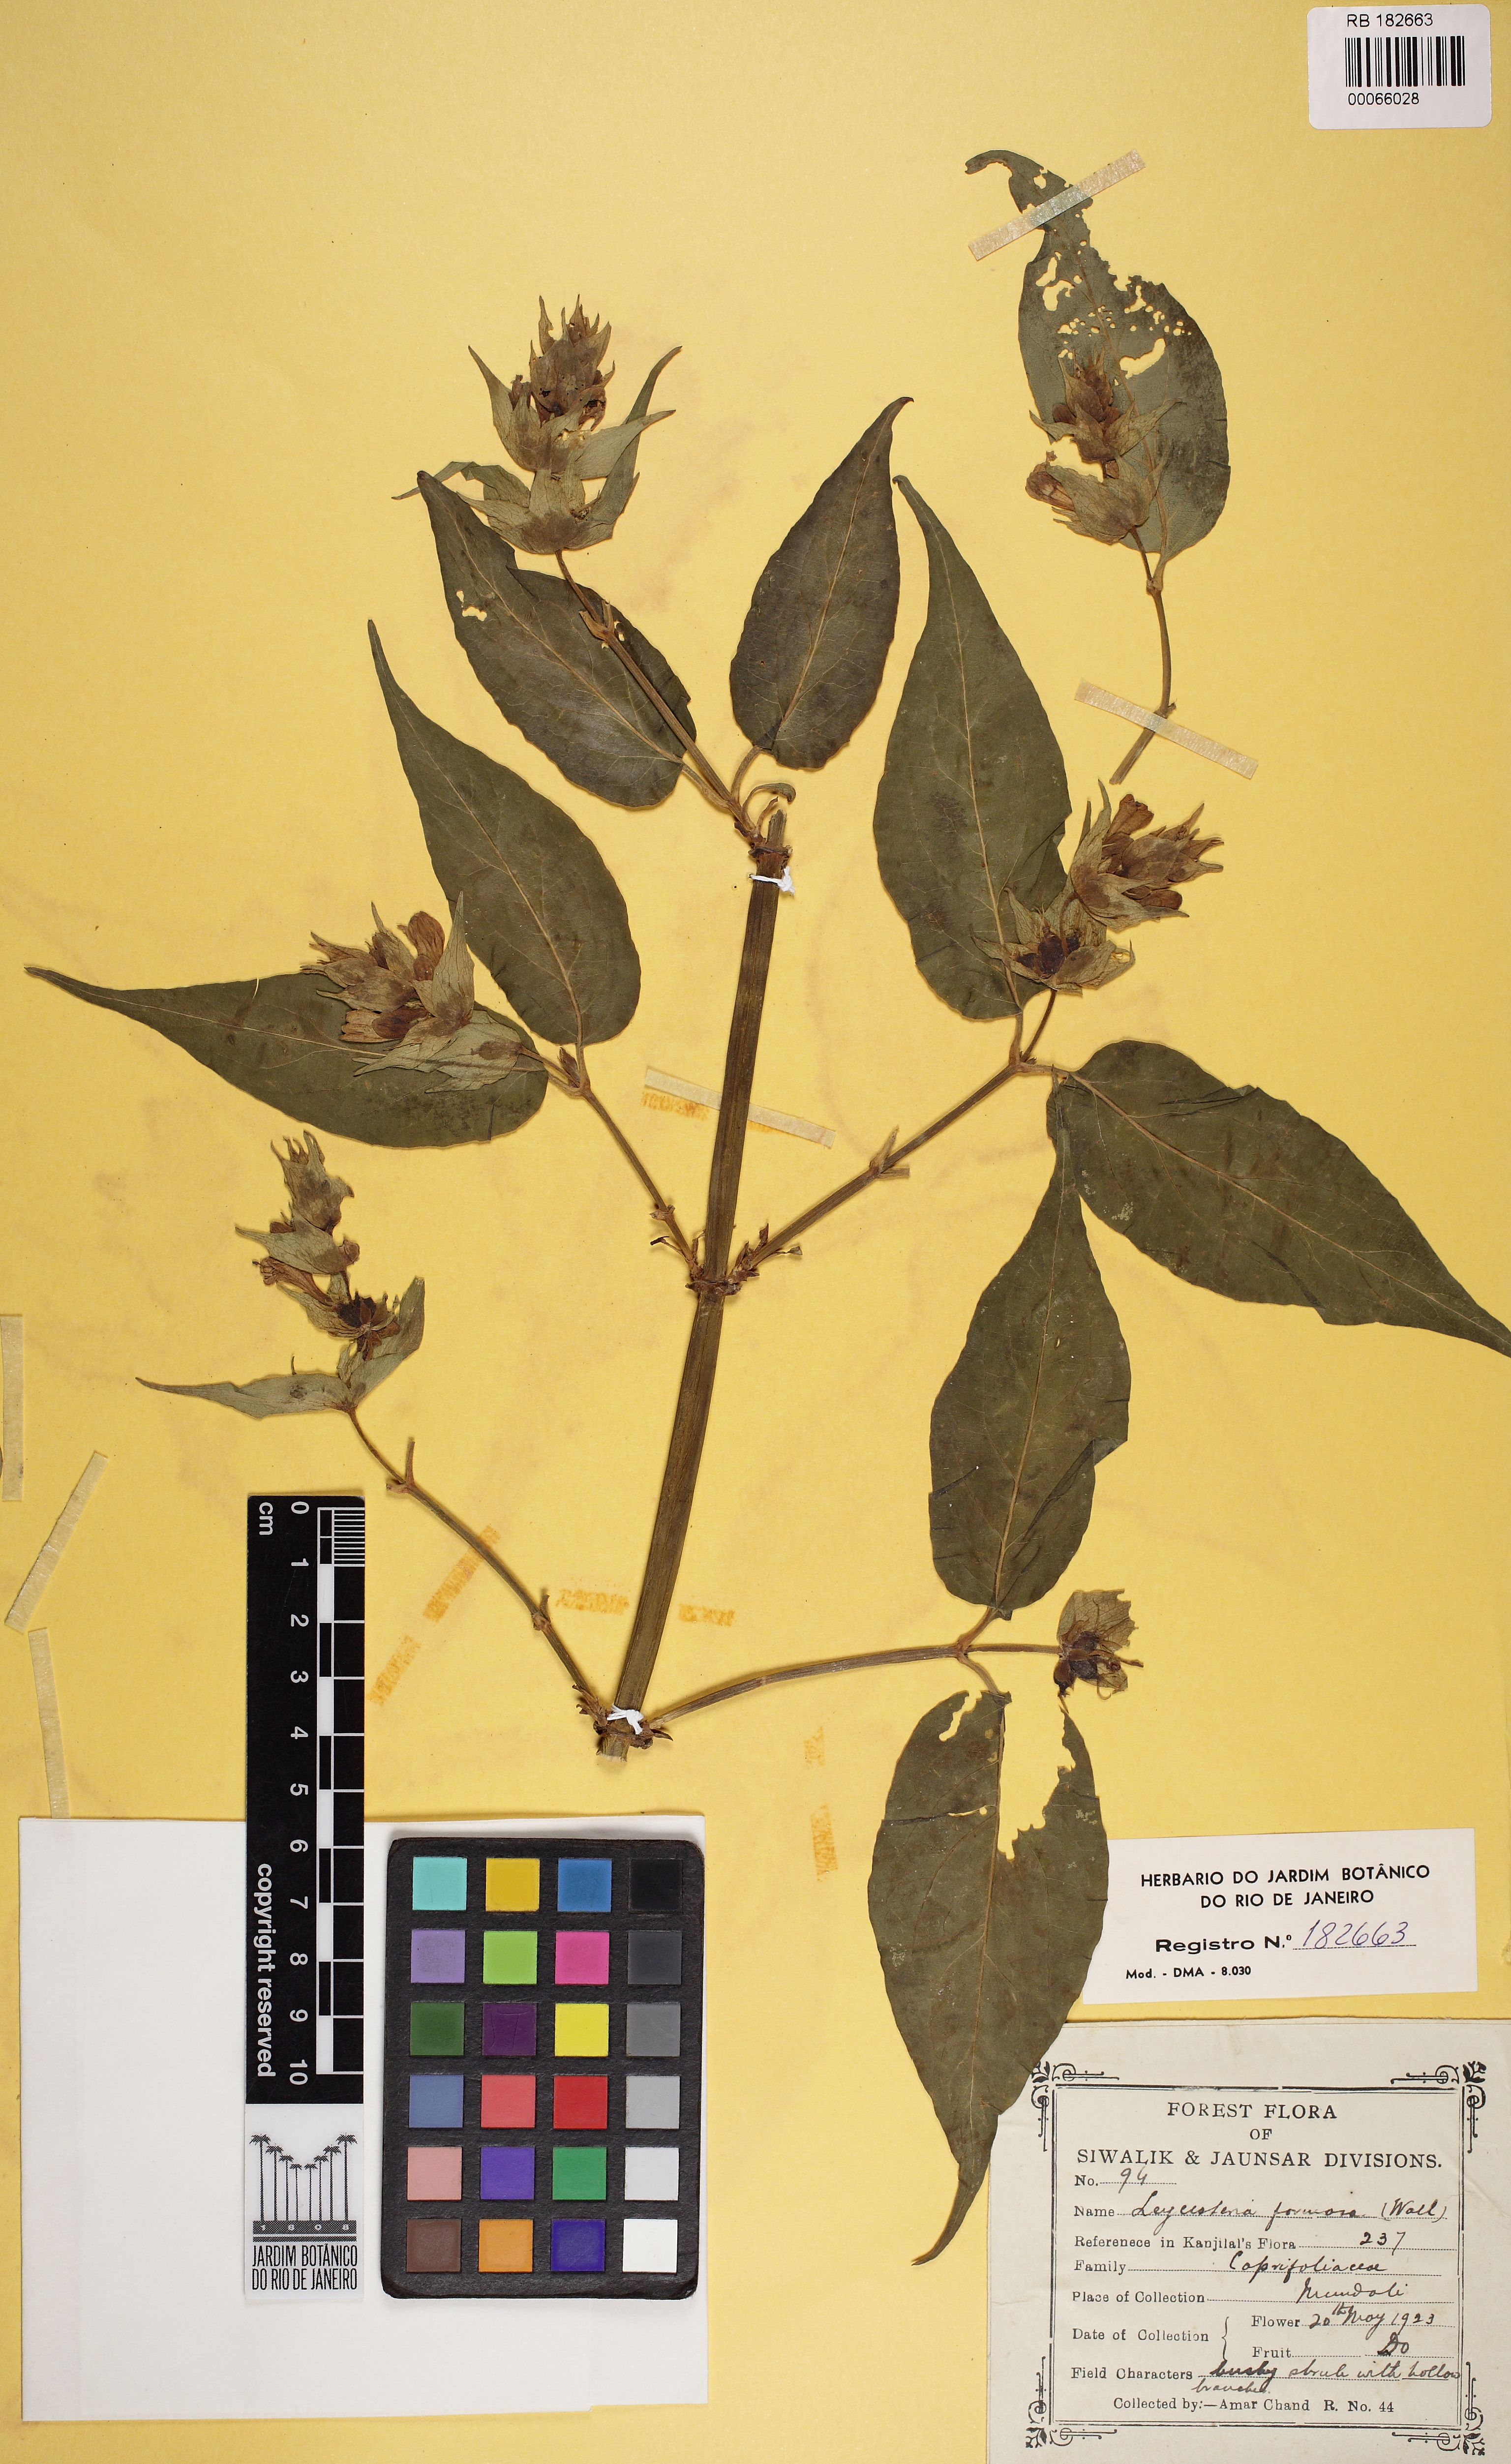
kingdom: Plantae
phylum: Tracheophyta
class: Magnoliopsida
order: Dipsacales
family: Caprifoliaceae
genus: Leycesteria
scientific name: Leycesteria formosa
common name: Himalayan honeysuckle
